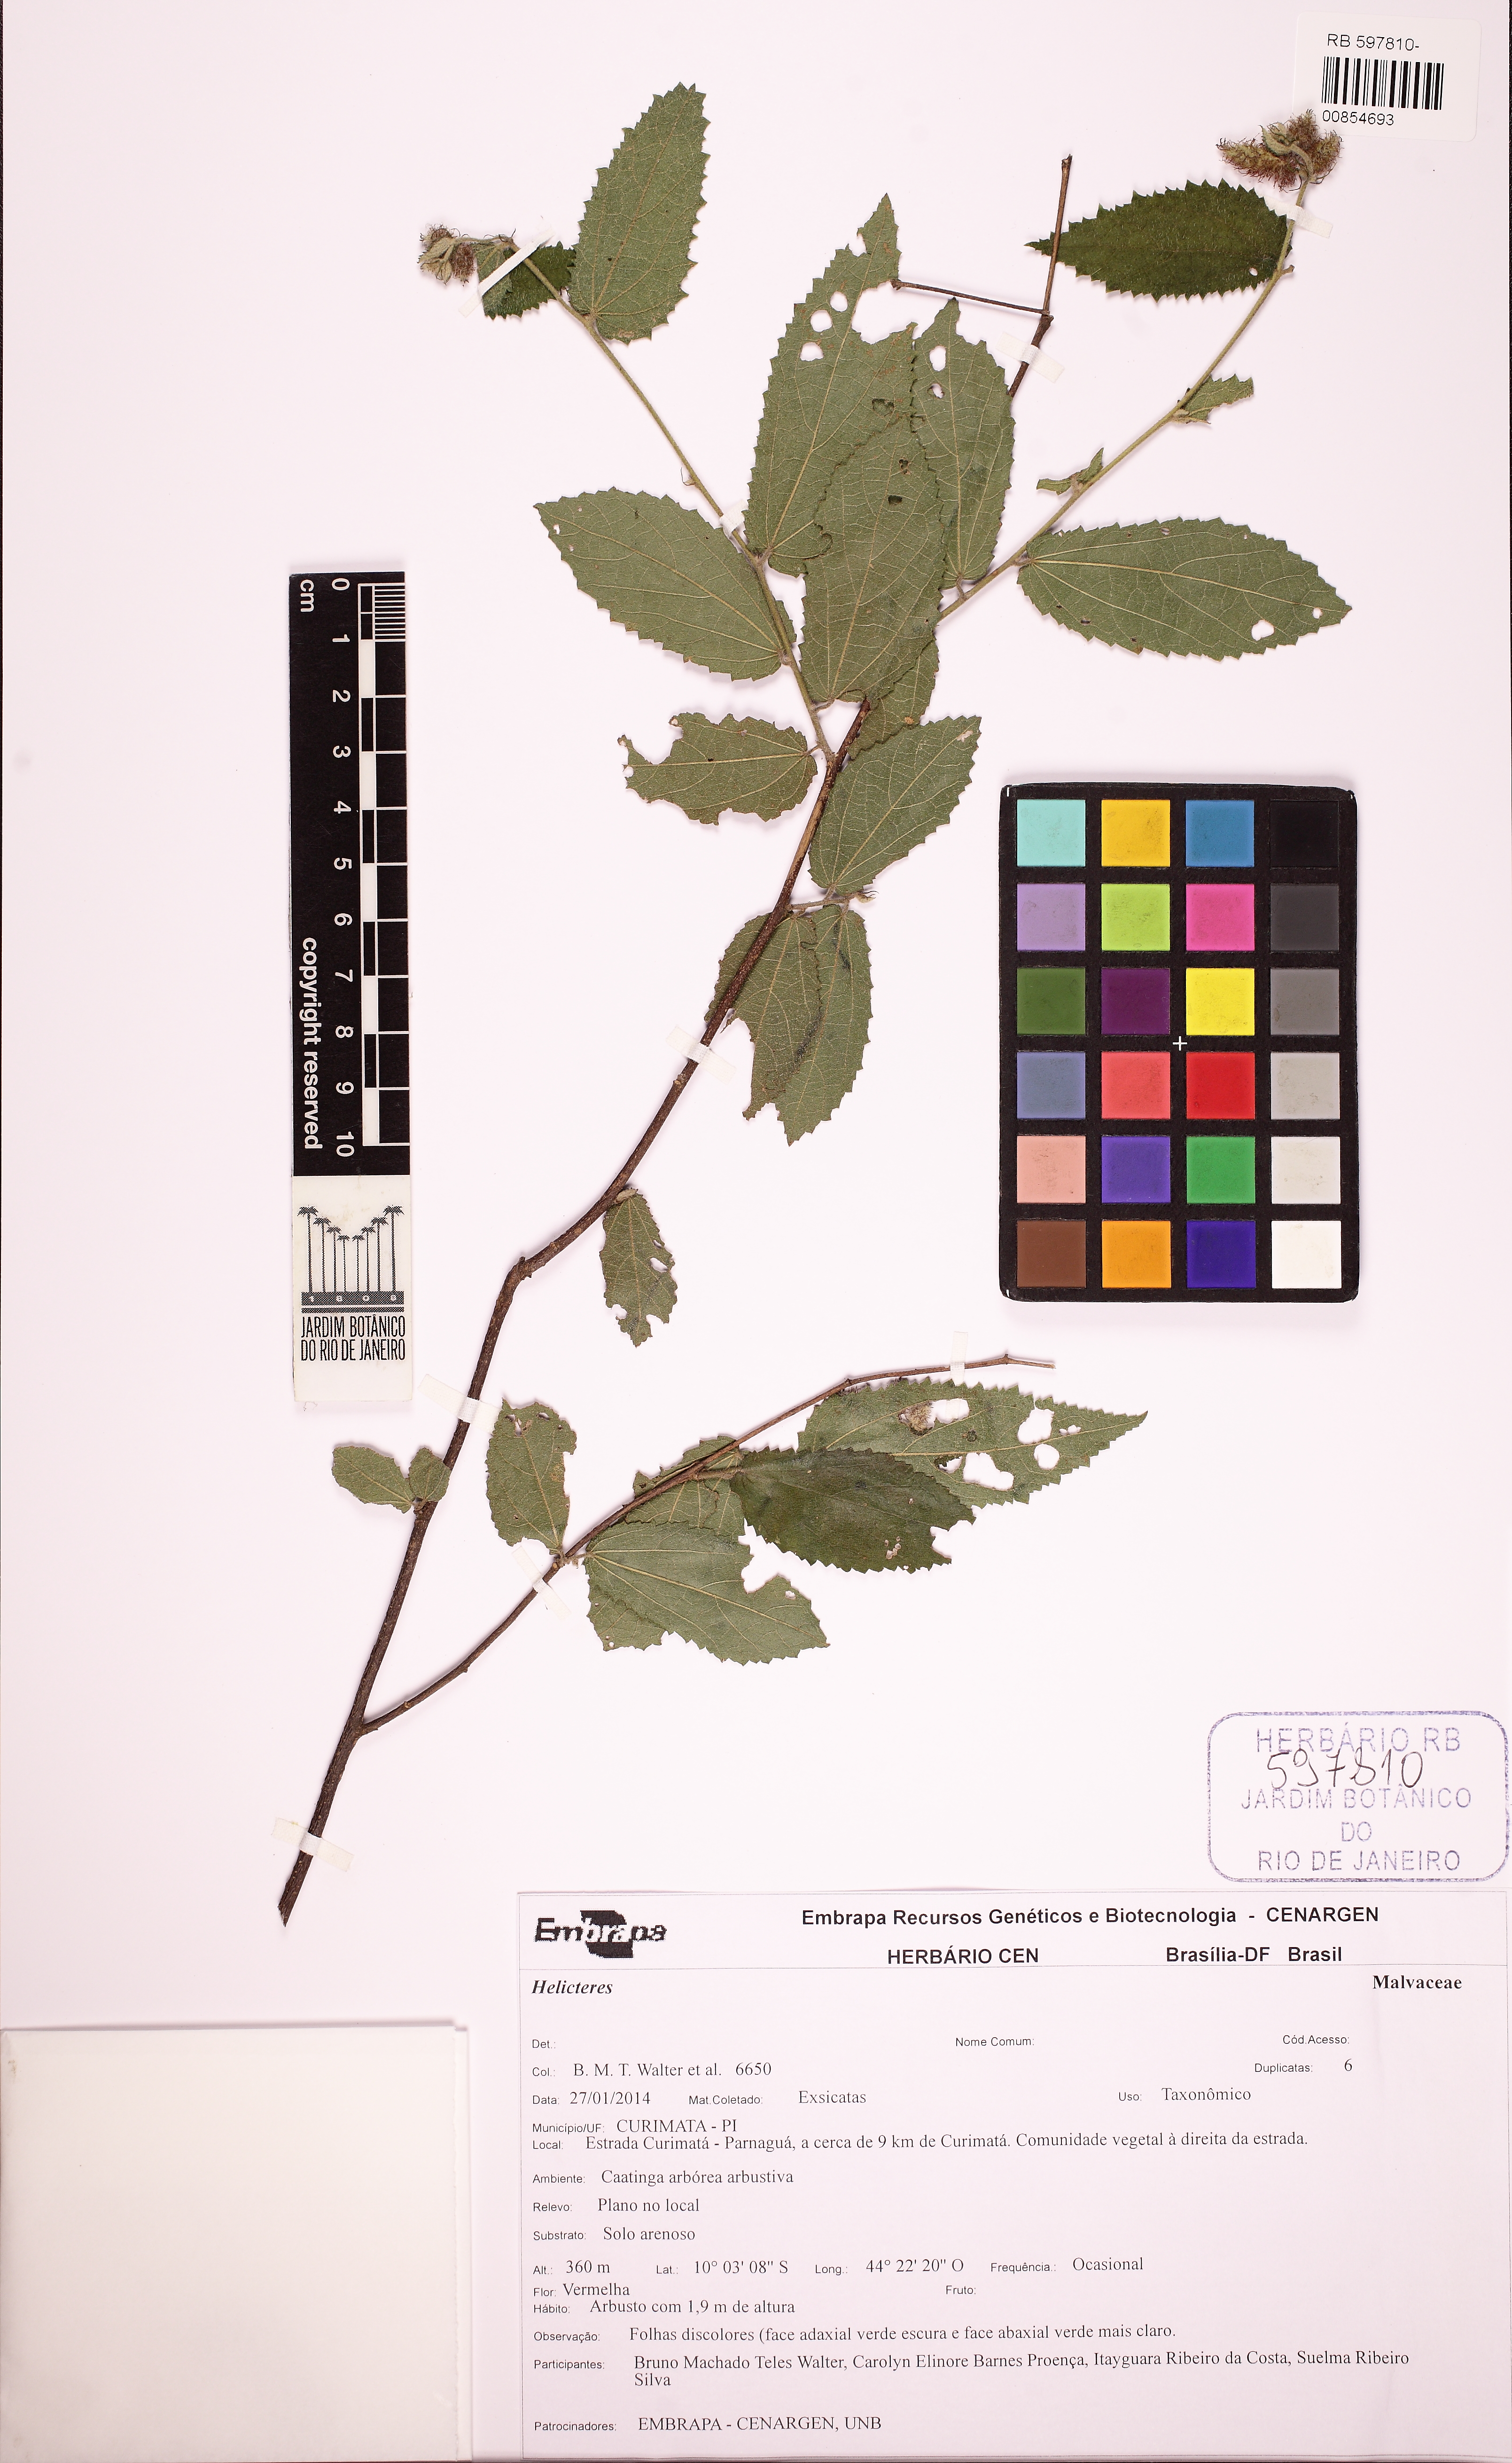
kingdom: Plantae
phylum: Tracheophyta
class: Magnoliopsida
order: Malvales
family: Malvaceae
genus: Helicteres
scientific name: Helicteres
